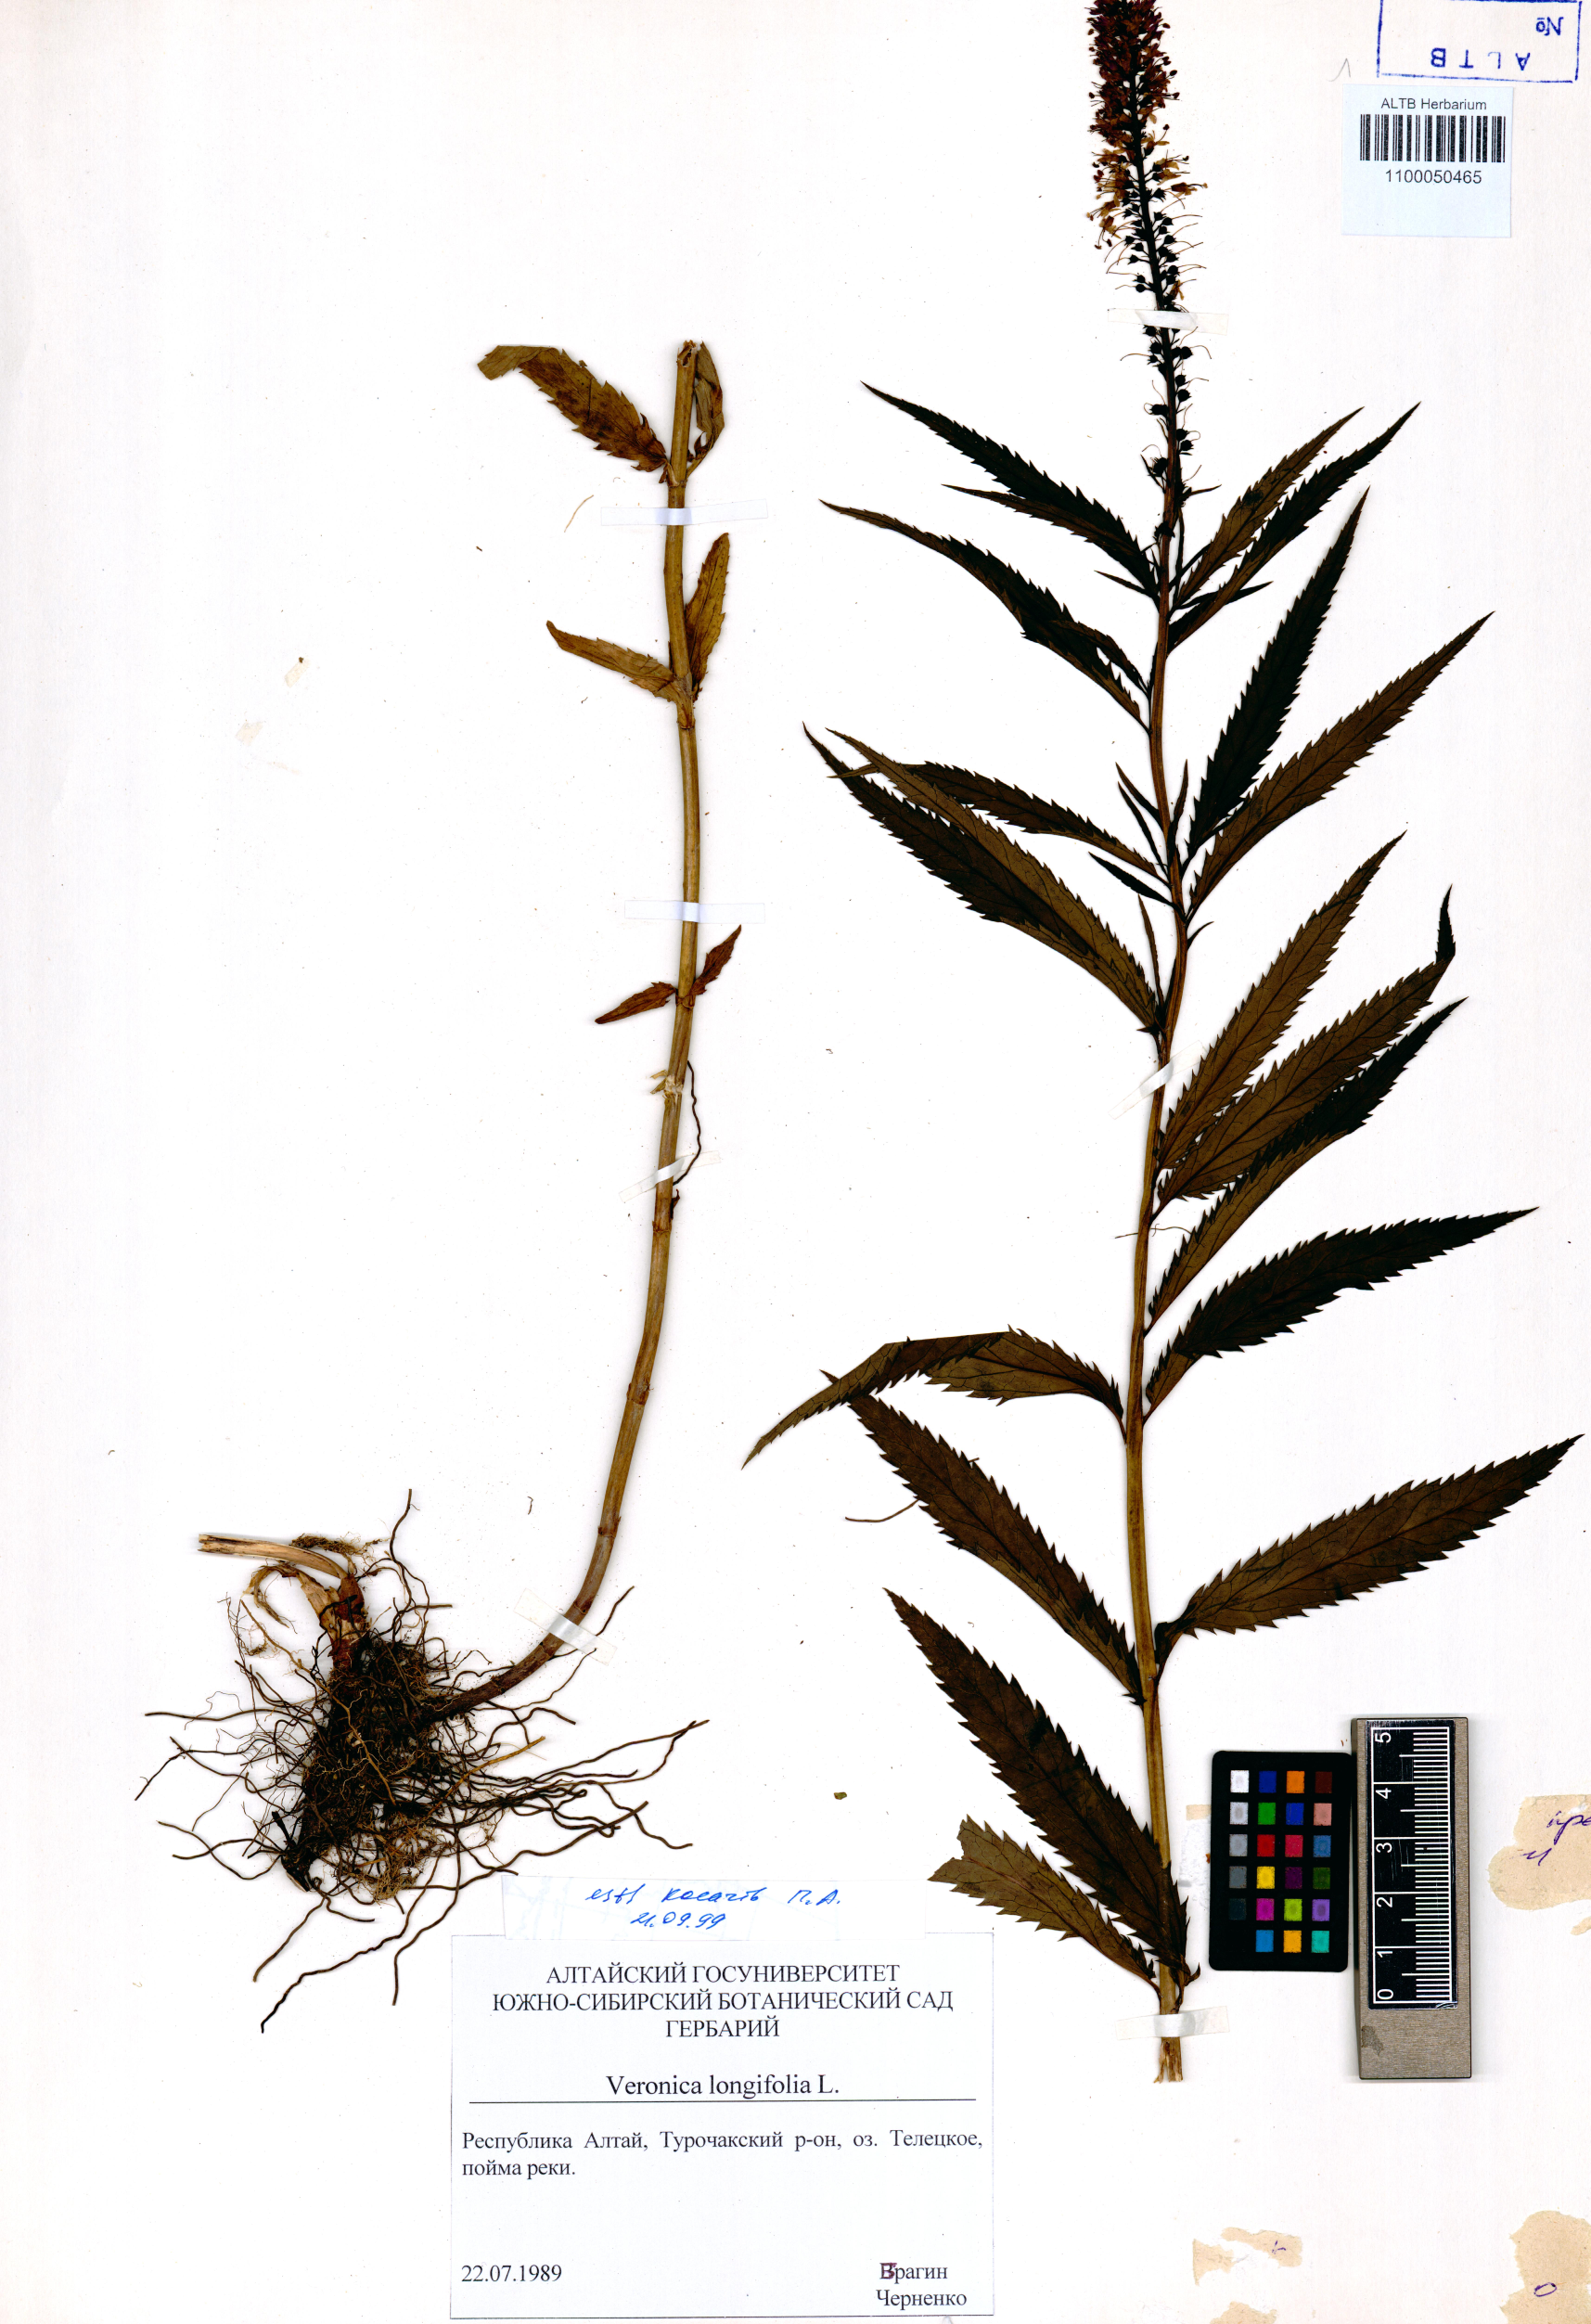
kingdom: Plantae
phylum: Tracheophyta
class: Magnoliopsida
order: Lamiales
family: Plantaginaceae
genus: Veronica
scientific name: Veronica longifolia
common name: Garden speedwell
